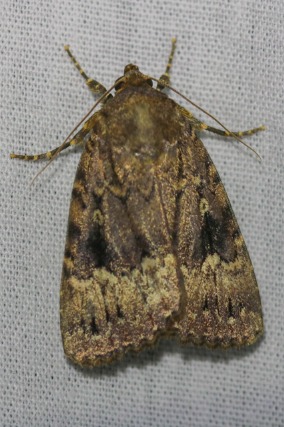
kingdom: Animalia
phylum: Arthropoda
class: Insecta
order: Lepidoptera
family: Noctuidae
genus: Amphipyra
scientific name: Amphipyra pyramidea
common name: Pyramideugle
